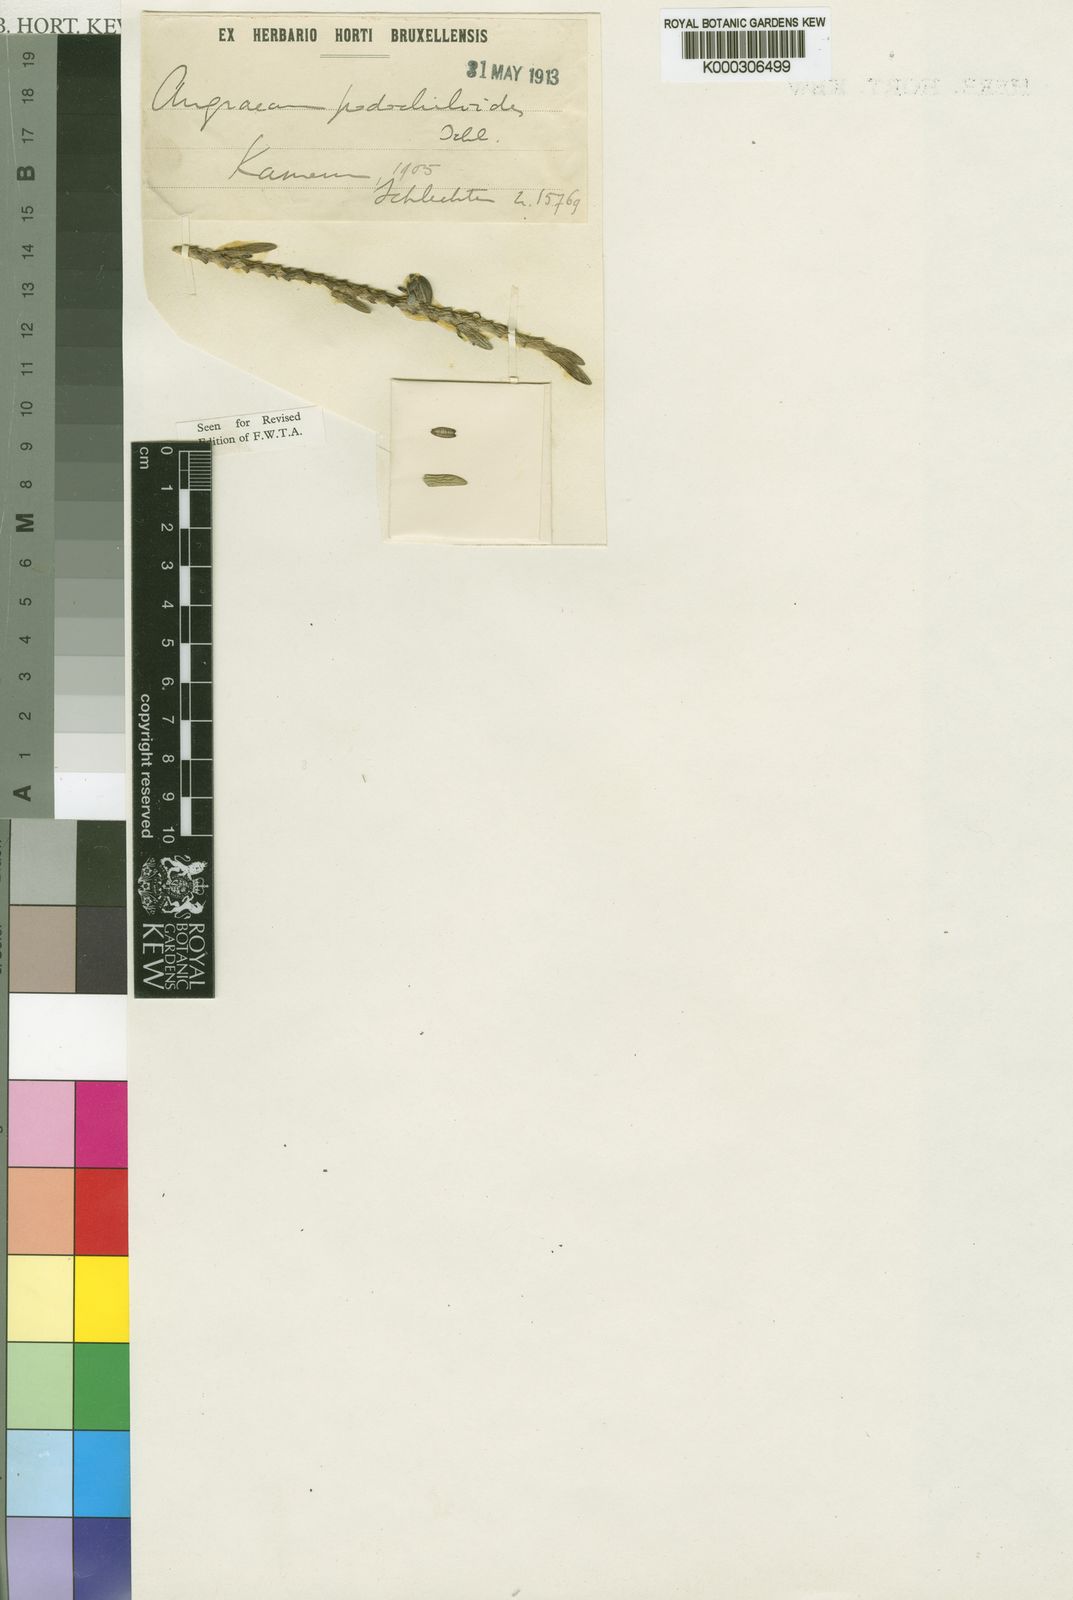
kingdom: Plantae
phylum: Tracheophyta
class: Liliopsida
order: Asparagales
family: Orchidaceae
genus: Angraecum
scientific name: Angraecum podochiloides
